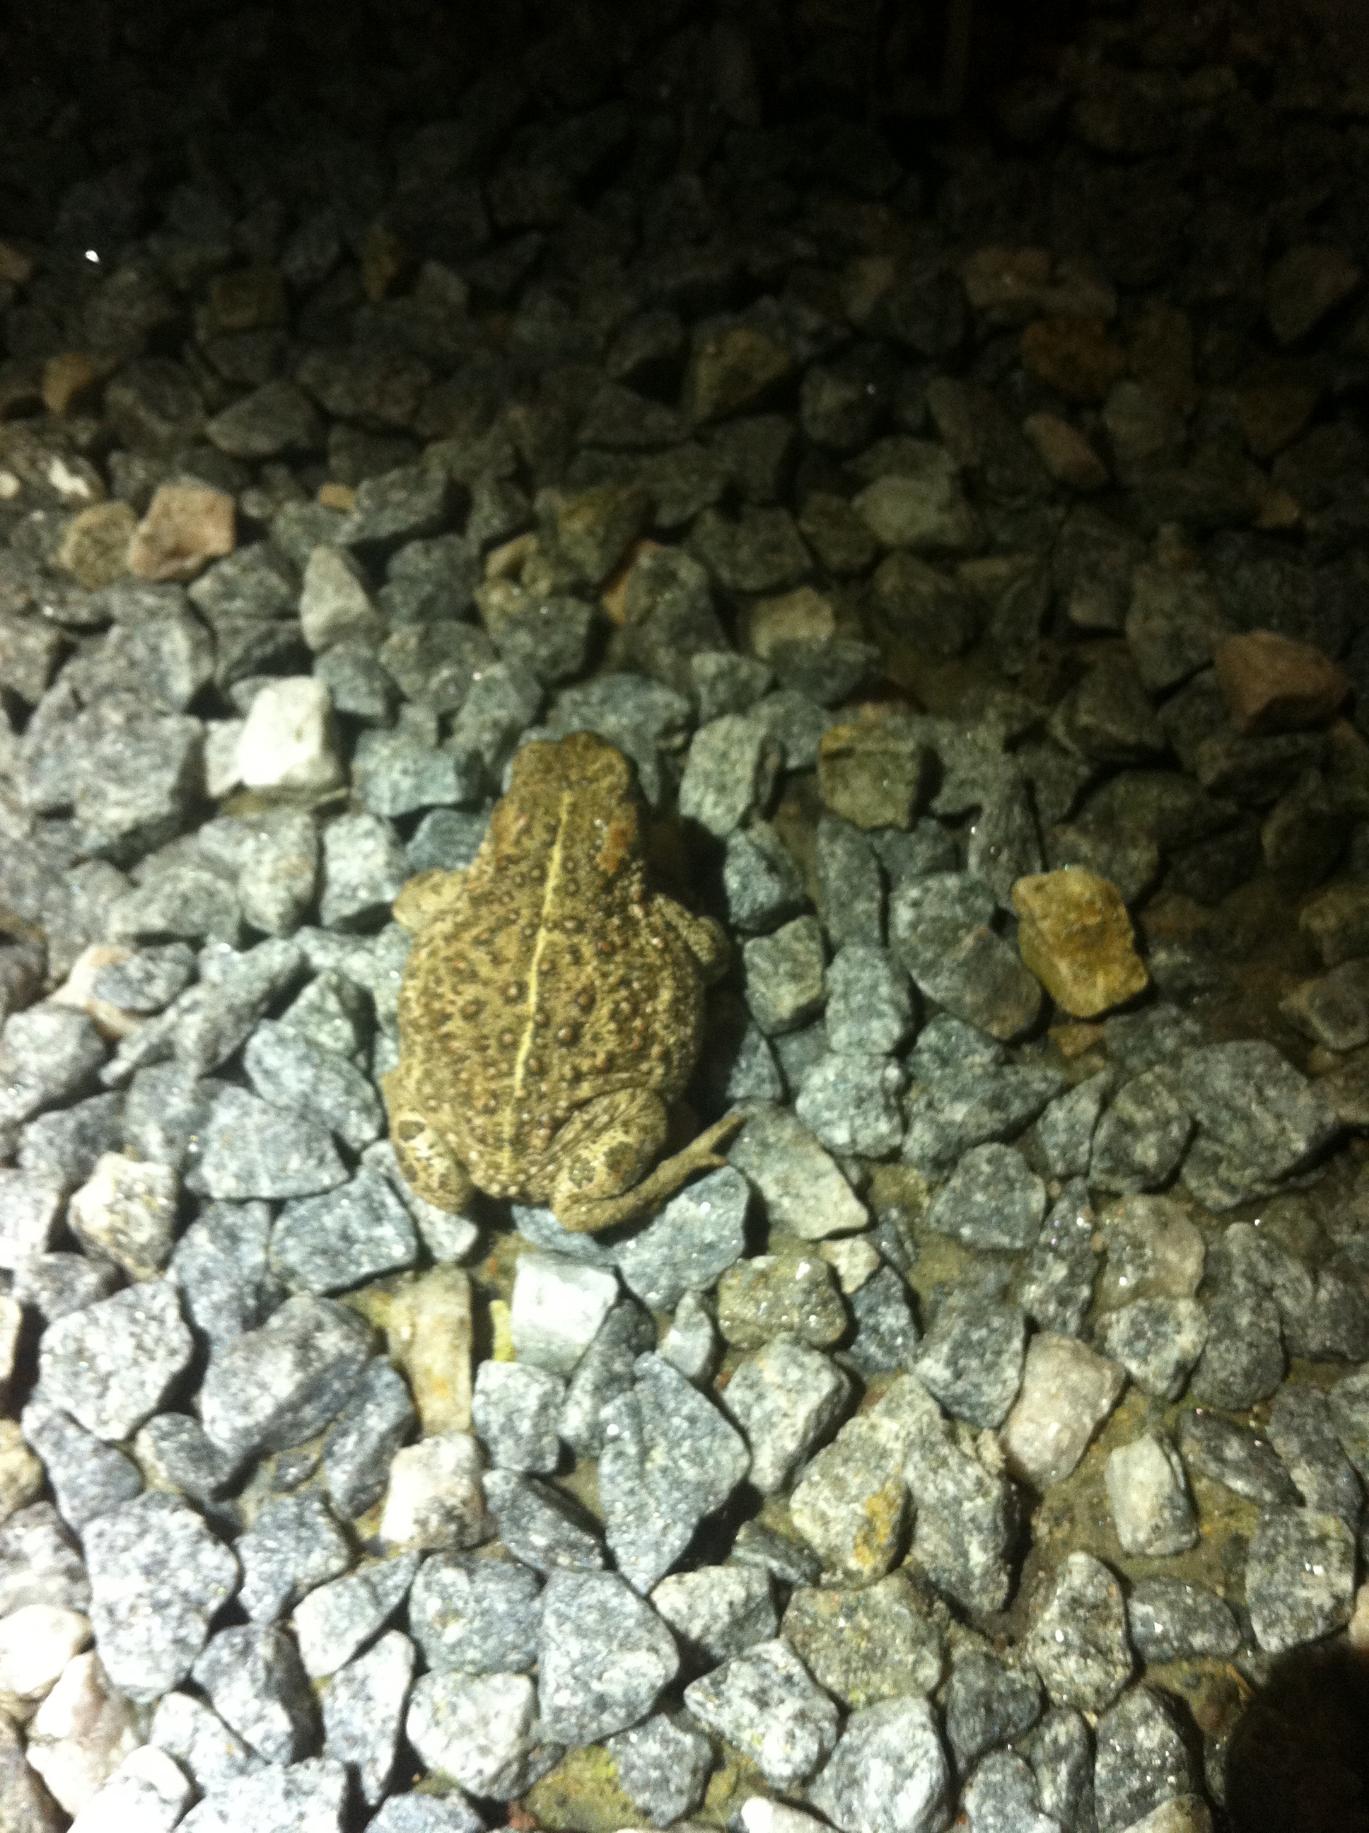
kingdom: Animalia
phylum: Chordata
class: Amphibia
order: Anura
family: Bufonidae
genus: Epidalea
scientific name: Epidalea calamita
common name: Strandtudse
